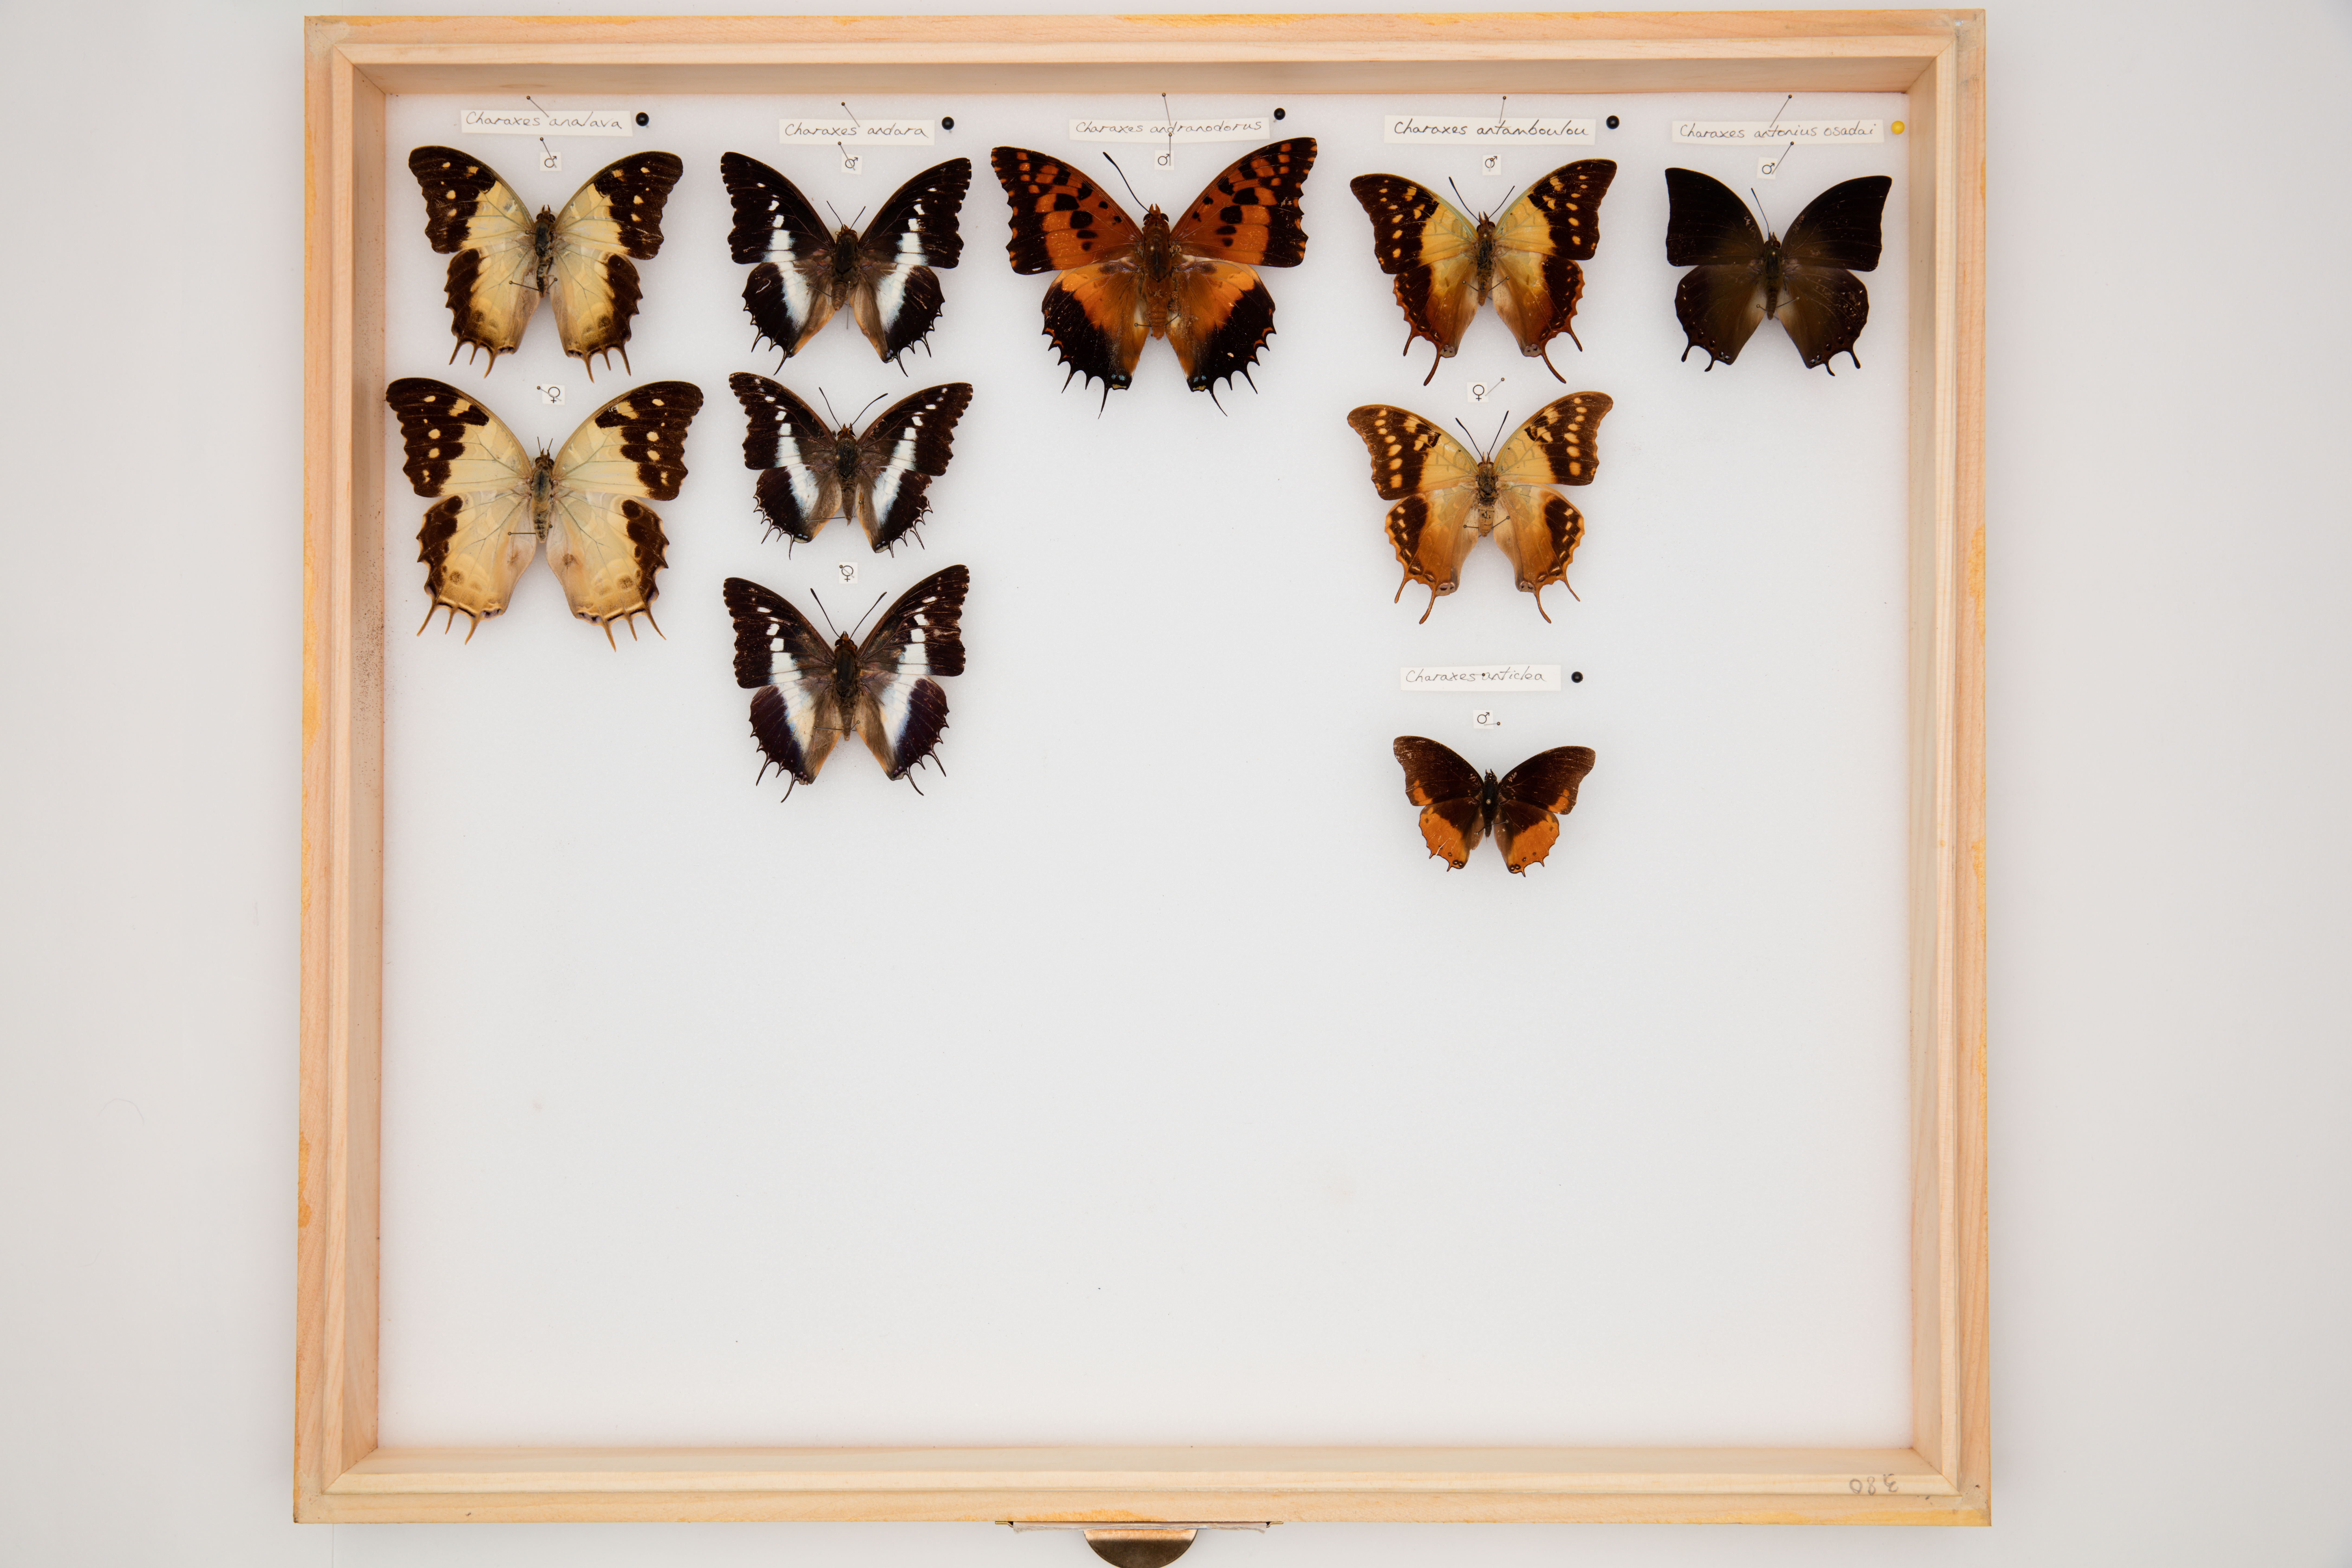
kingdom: Animalia
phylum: Arthropoda
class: Insecta
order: Lepidoptera
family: Nymphalidae
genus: Charaxes
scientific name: Charaxes antamboulou
